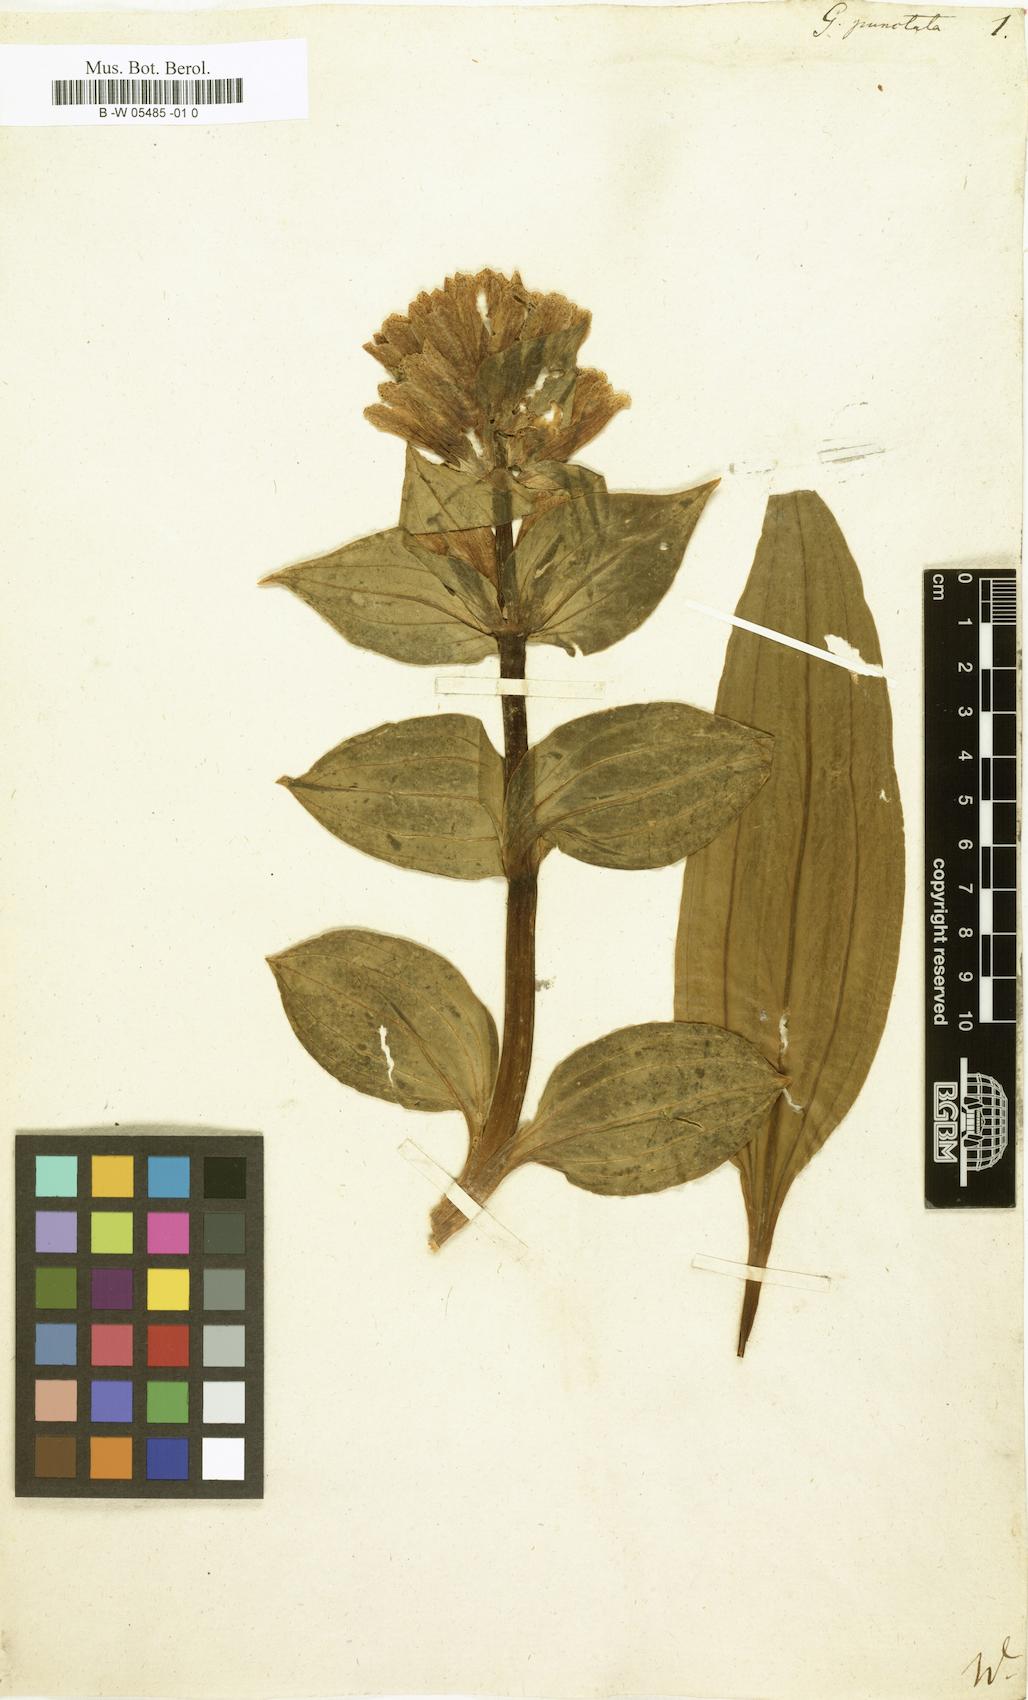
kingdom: Plantae
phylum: Tracheophyta
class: Magnoliopsida
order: Gentianales
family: Gentianaceae
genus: Gentiana
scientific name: Gentiana punctata
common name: Spotted gentian
